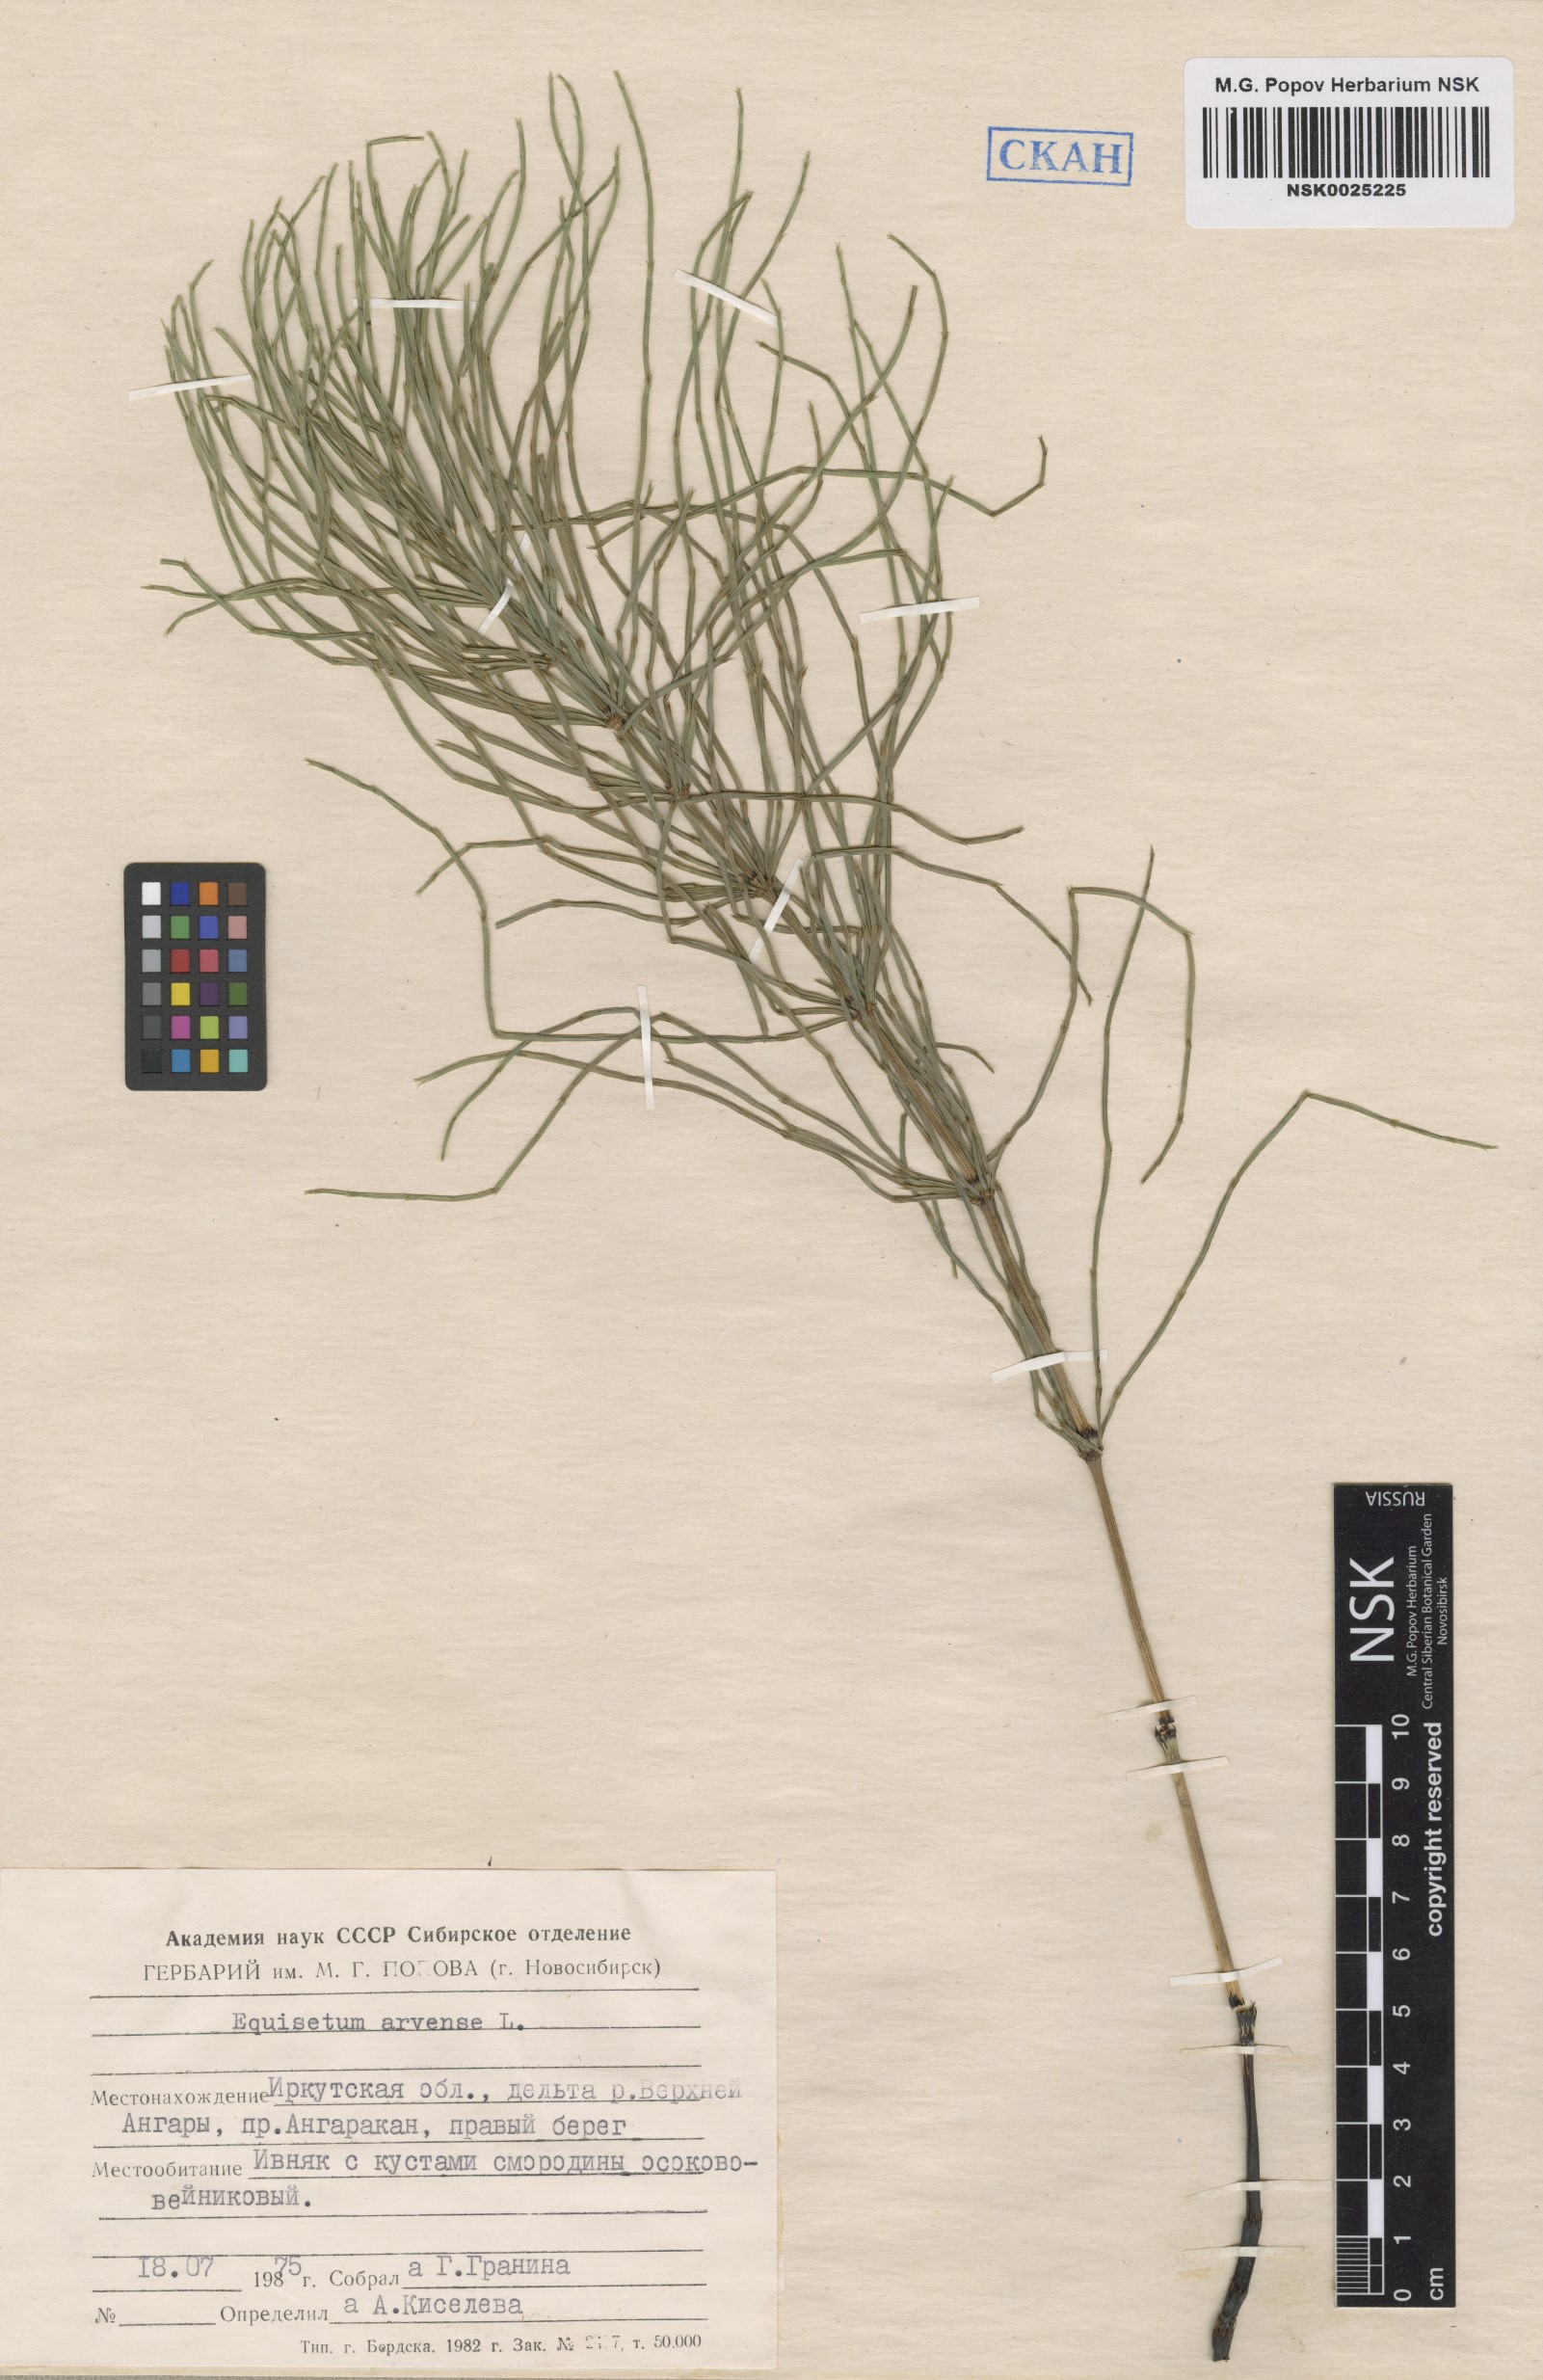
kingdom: Plantae
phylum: Tracheophyta
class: Polypodiopsida
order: Equisetales
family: Equisetaceae
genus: Equisetum
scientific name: Equisetum arvense
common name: Field horsetail
